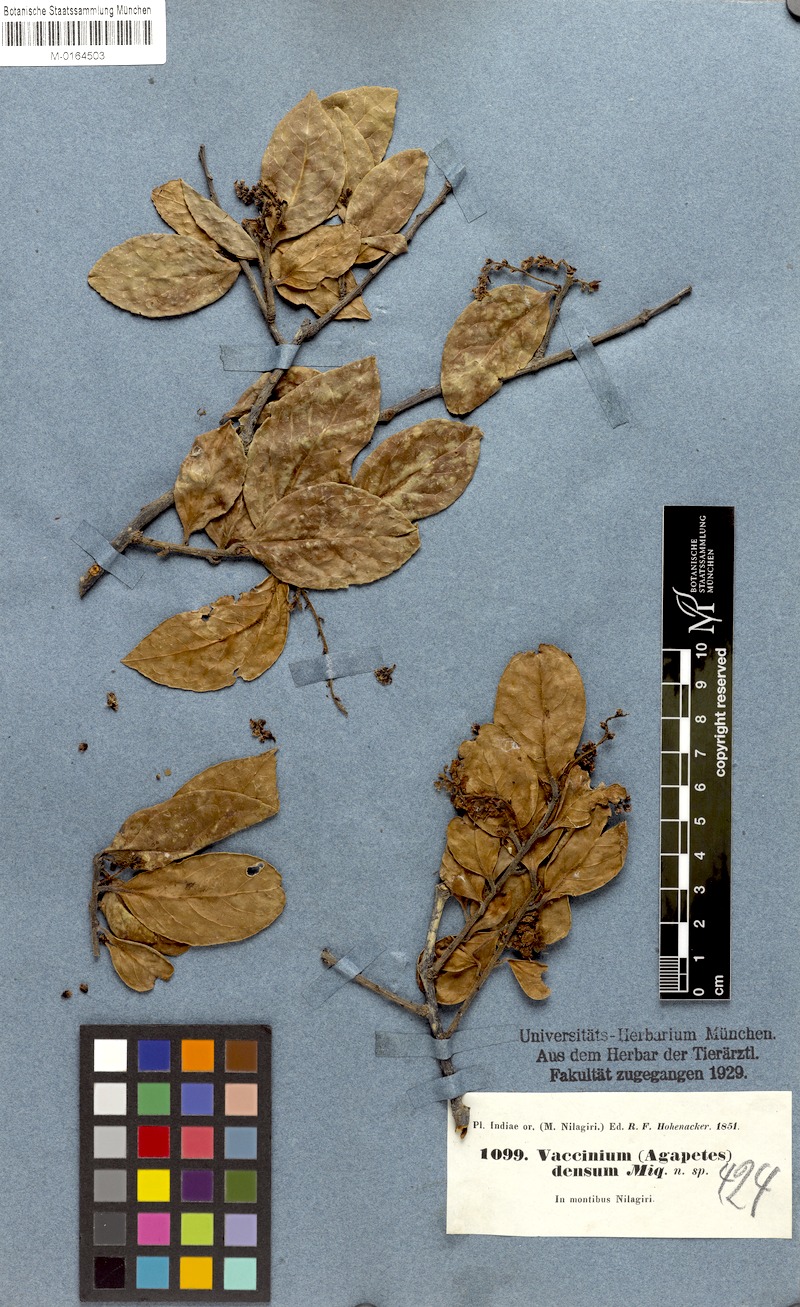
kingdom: Plantae
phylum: Tracheophyta
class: Magnoliopsida
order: Ericales
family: Ericaceae
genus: Vaccinium
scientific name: Vaccinium densum
